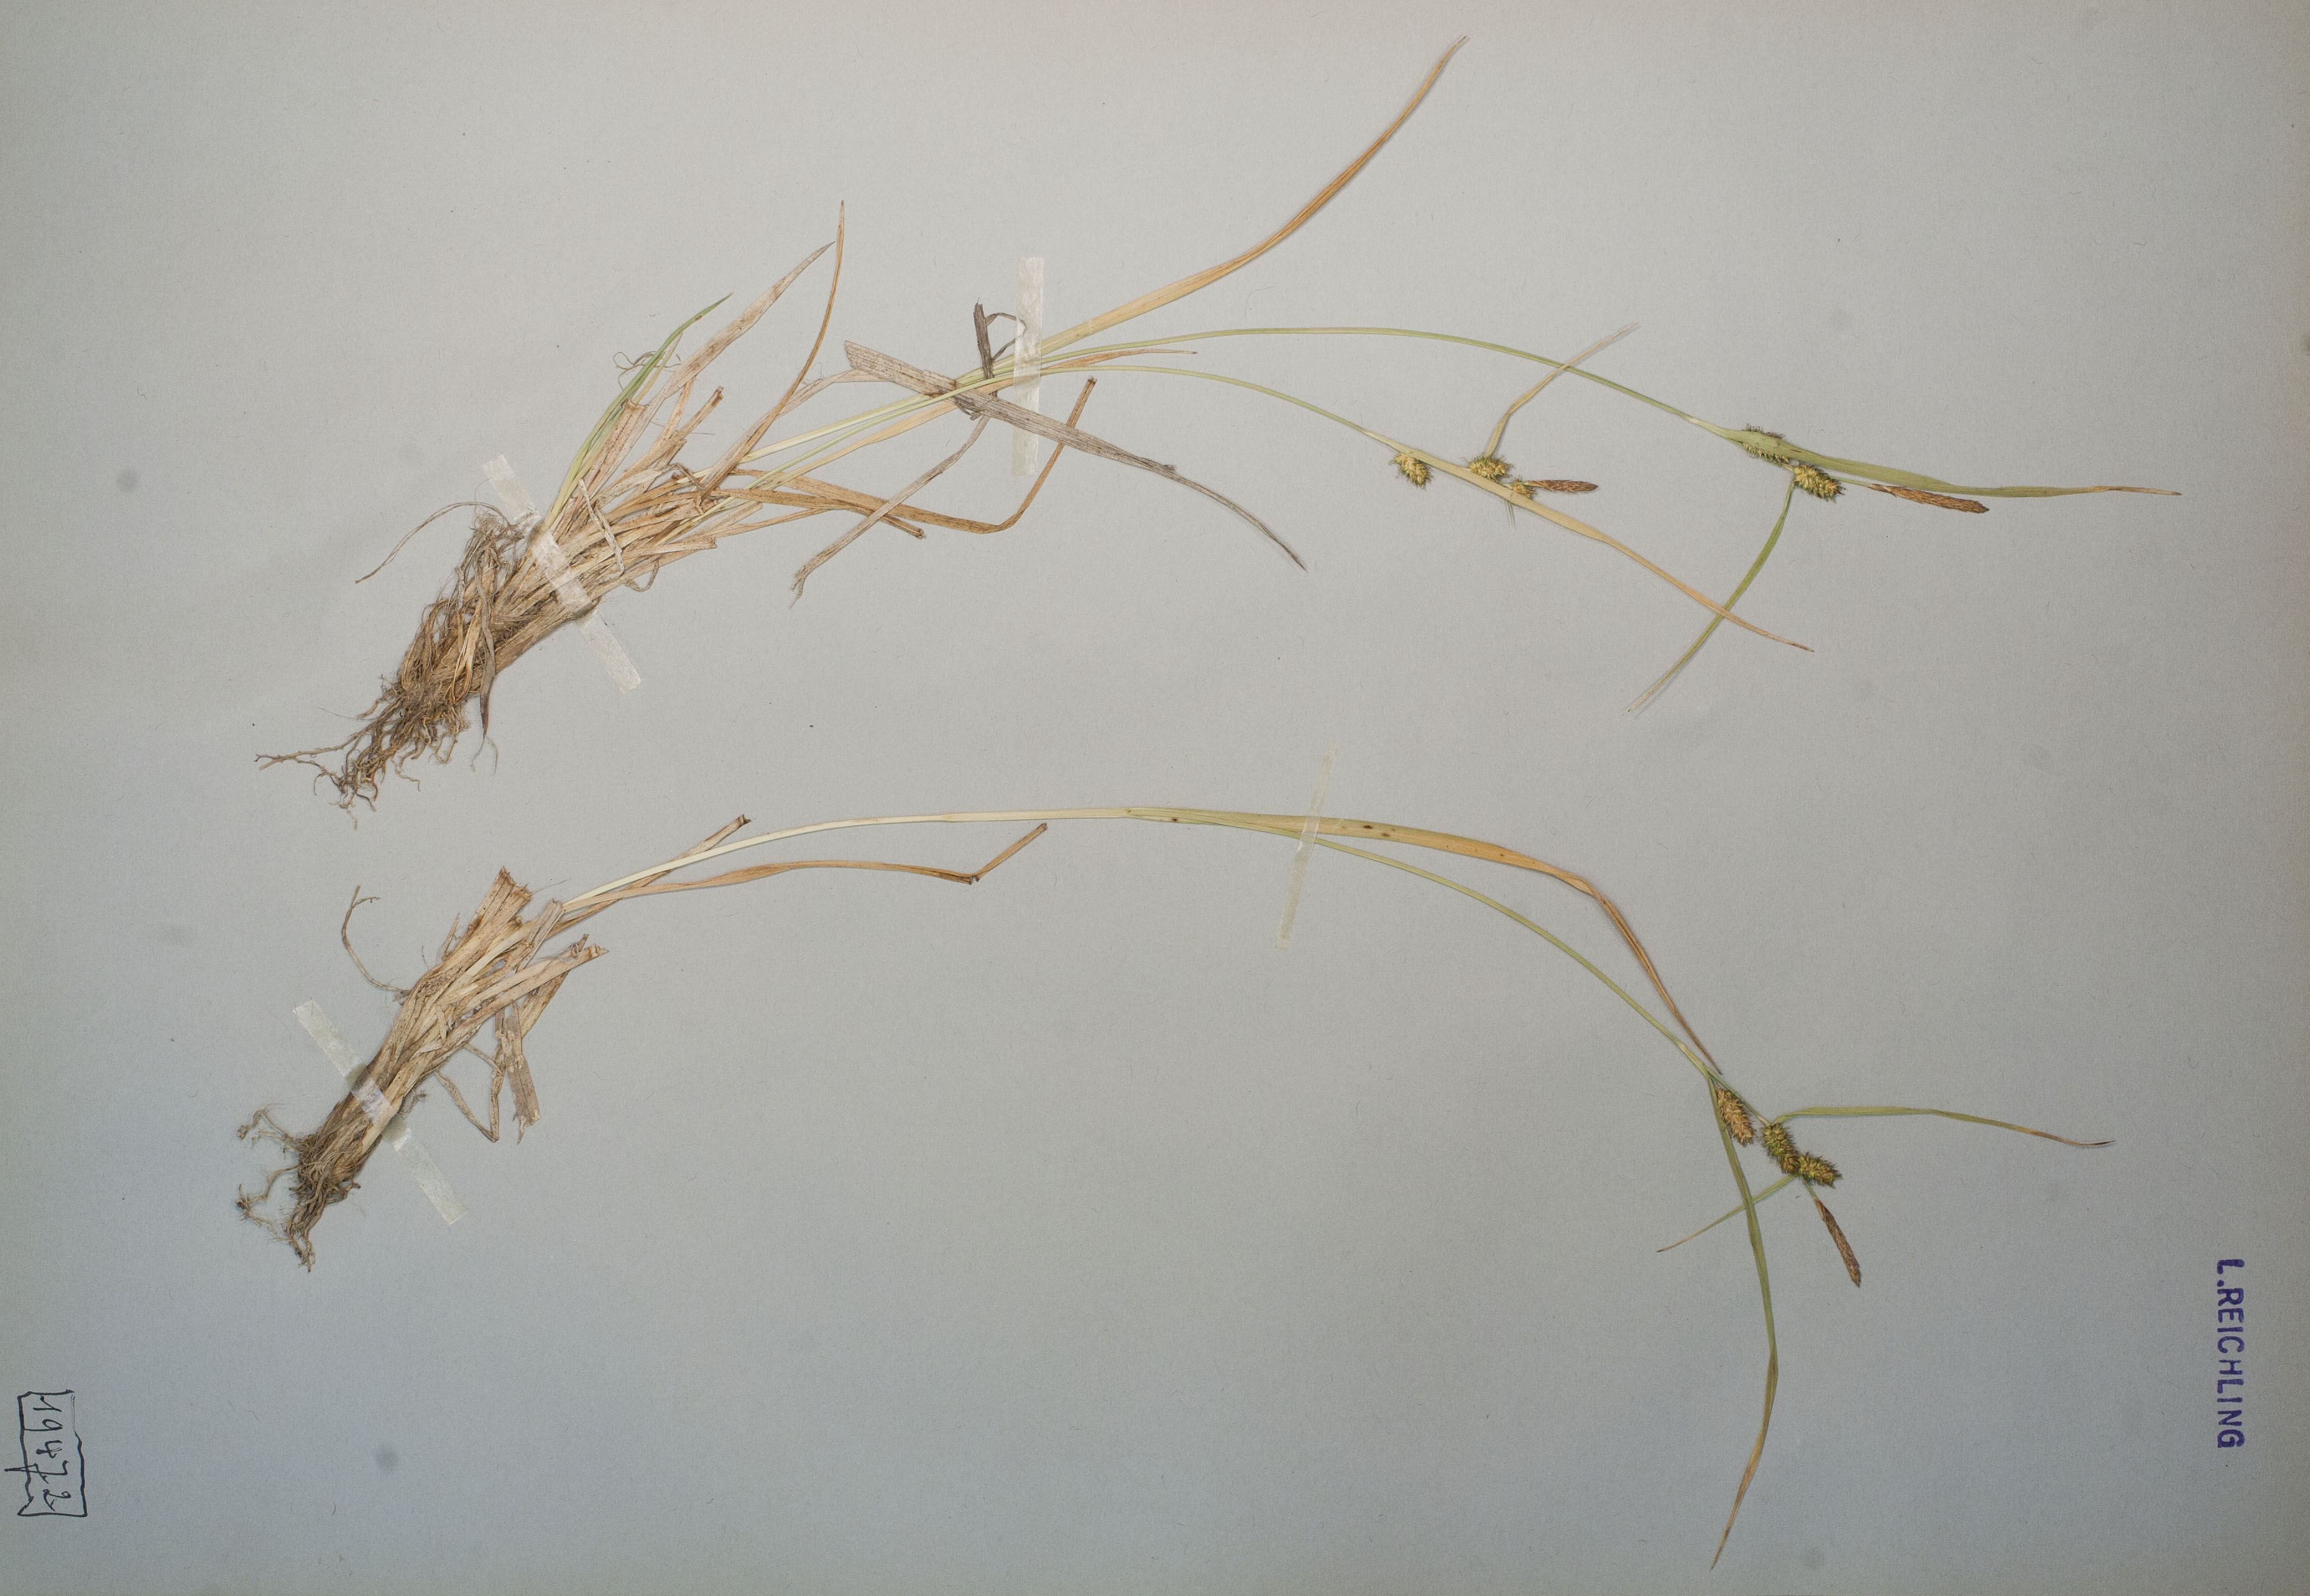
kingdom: Plantae
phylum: Tracheophyta
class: Liliopsida
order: Poales
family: Cyperaceae
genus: Carex
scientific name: Carex demissa
